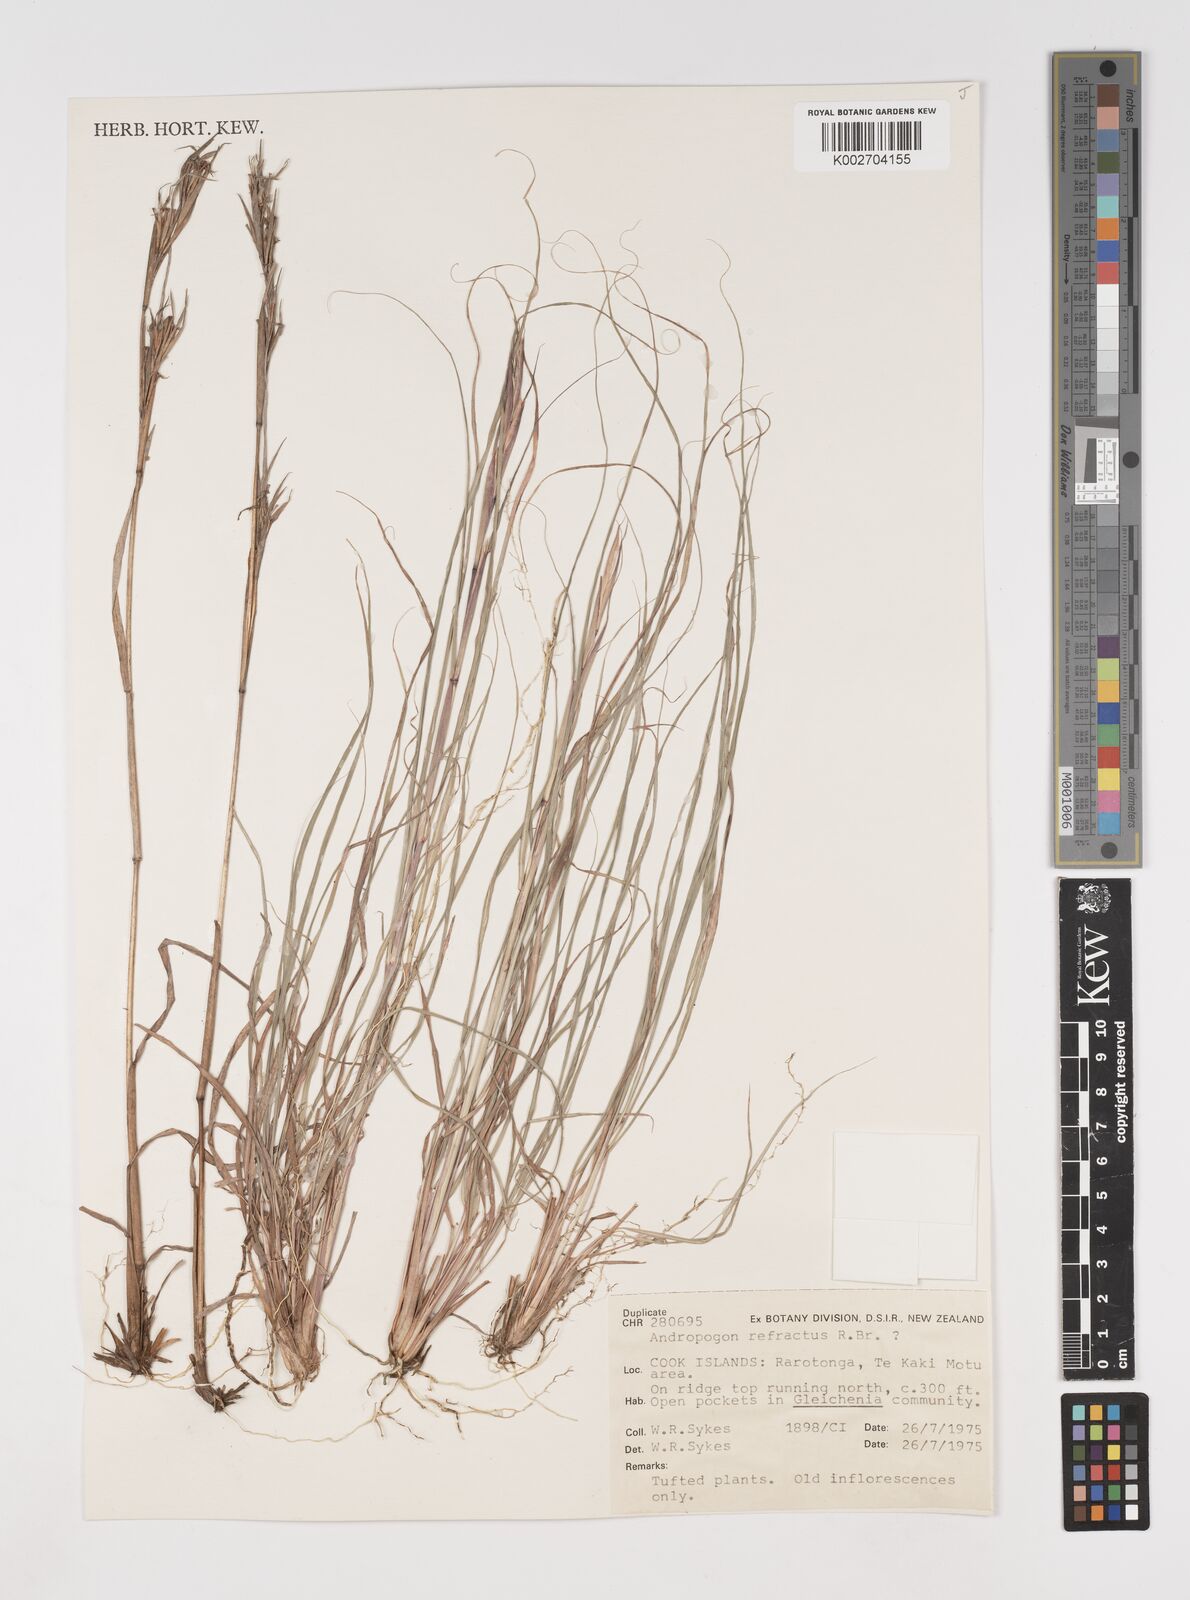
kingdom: Plantae
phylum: Tracheophyta
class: Liliopsida
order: Poales
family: Poaceae
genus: Cymbopogon
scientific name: Cymbopogon refractus
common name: Barbwire grass
